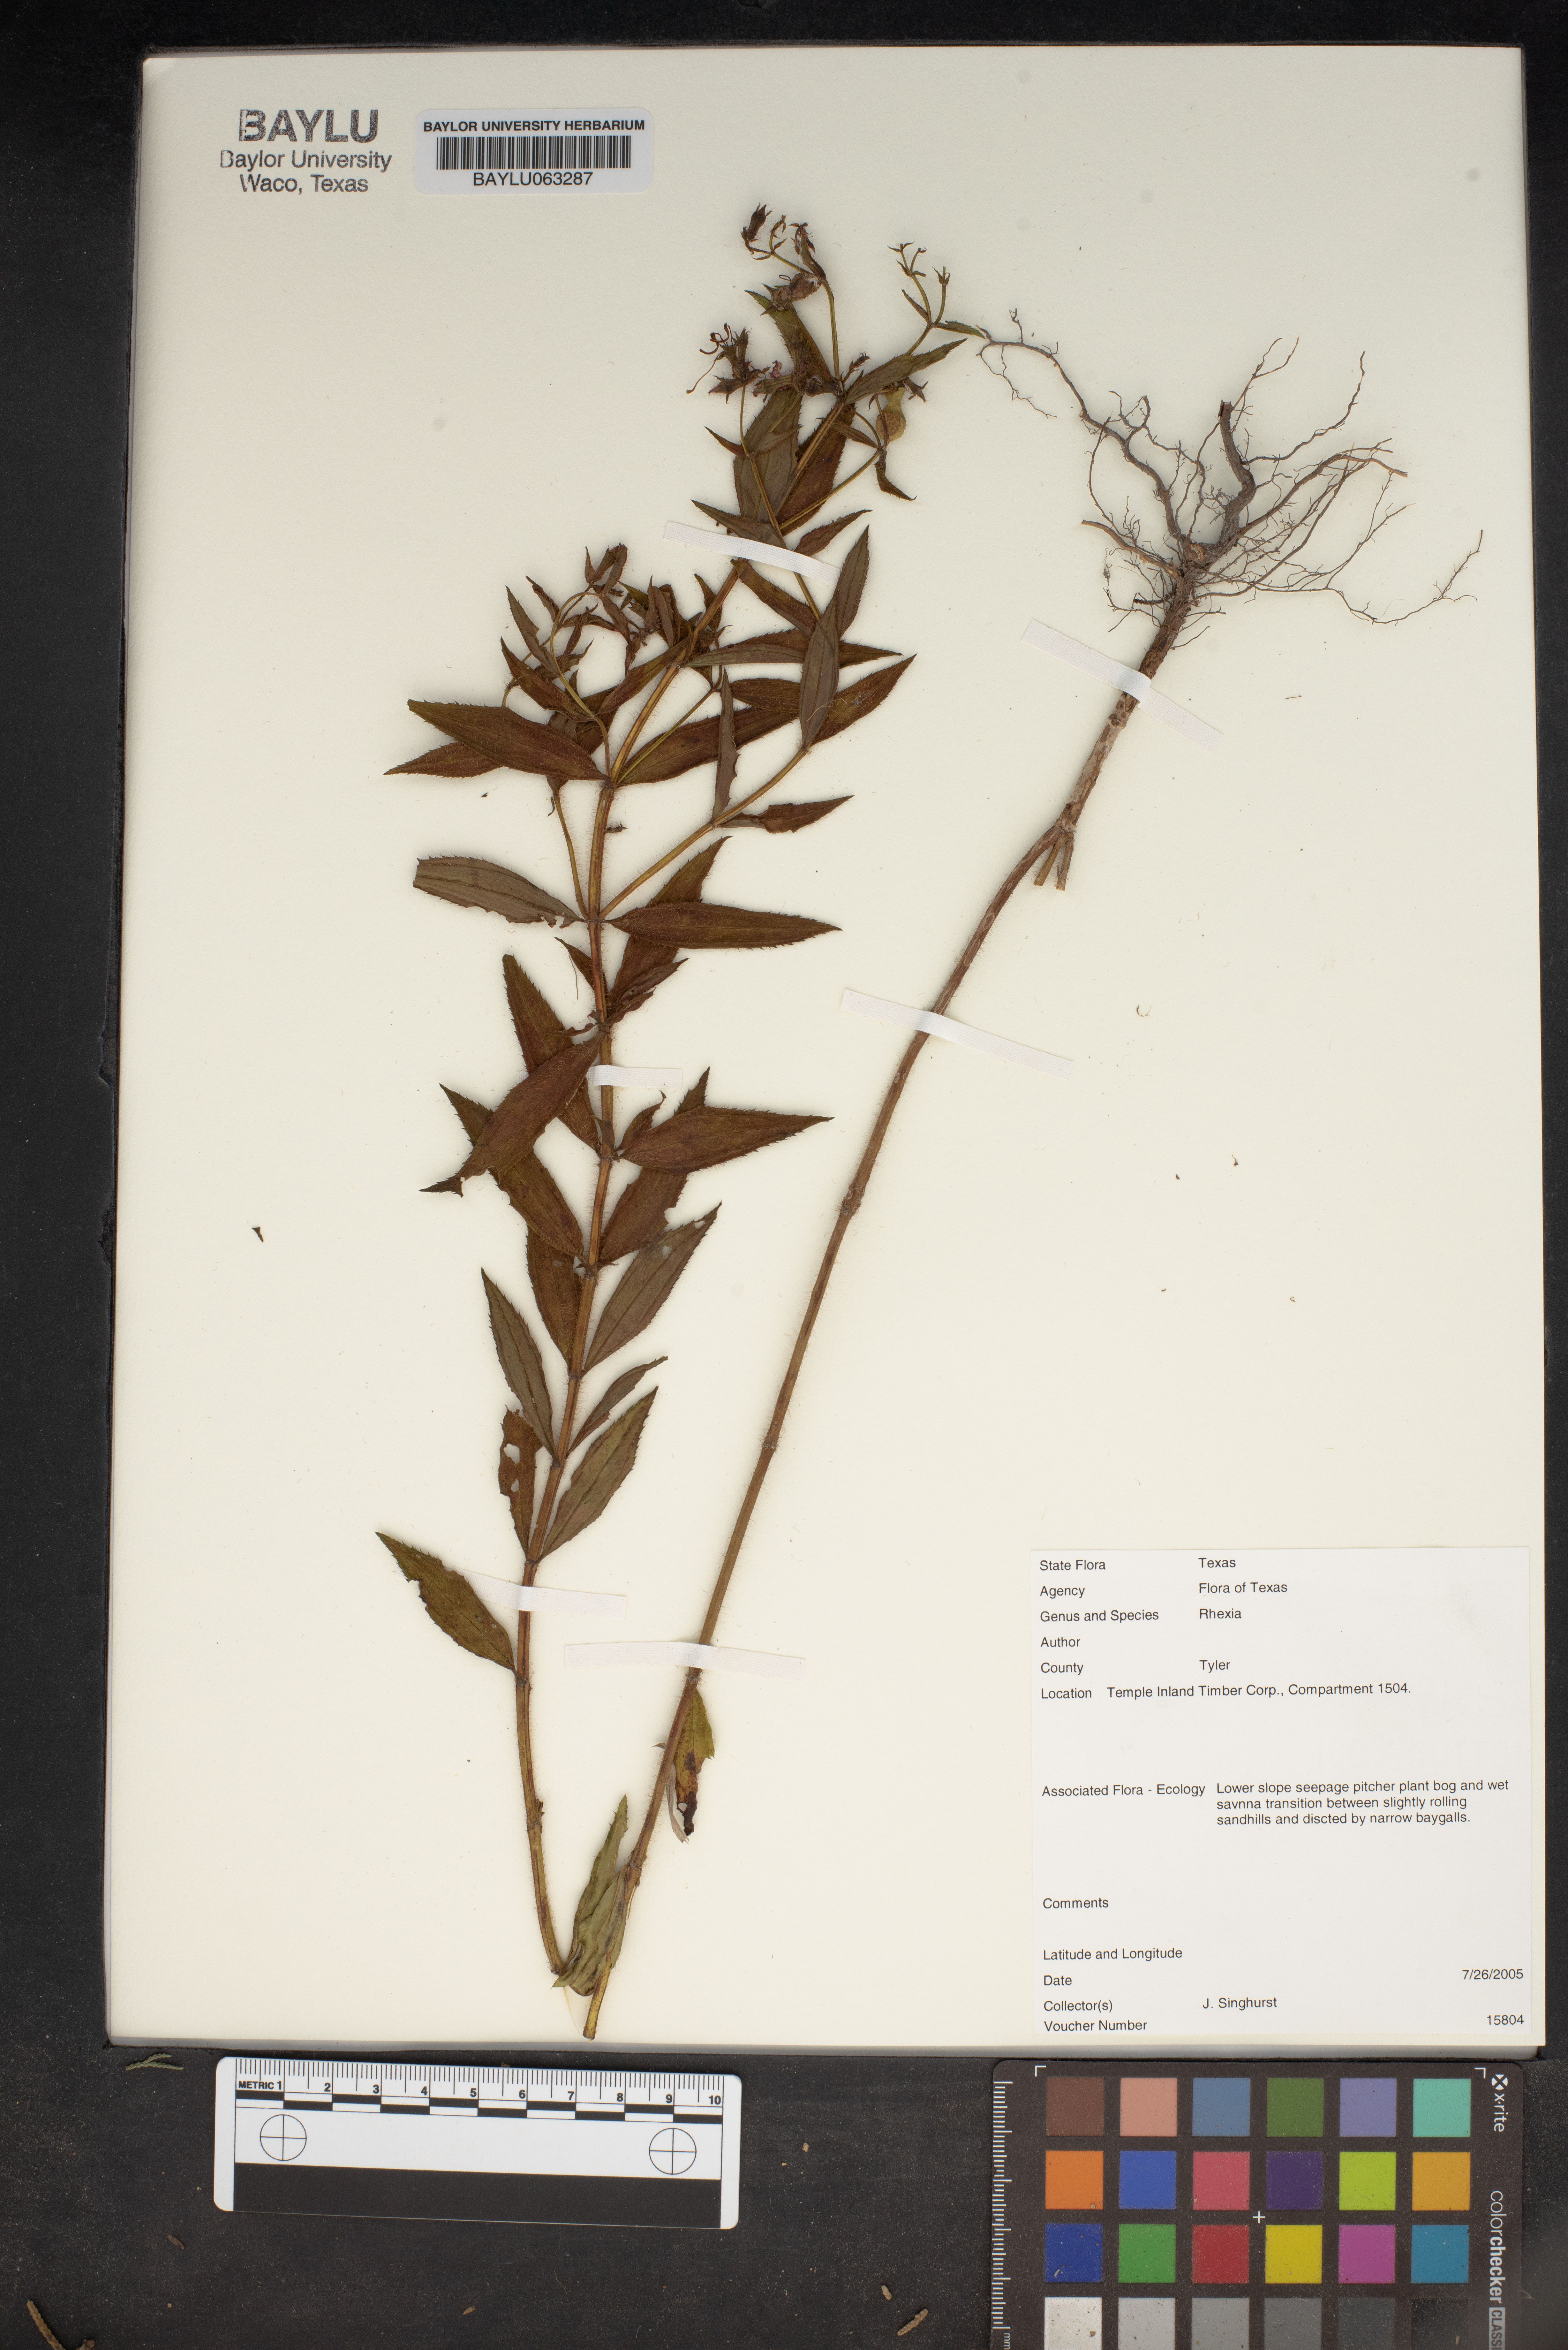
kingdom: Plantae
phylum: Tracheophyta
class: Magnoliopsida
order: Myrtales
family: Melastomataceae
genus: Rhexia
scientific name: Rhexia
